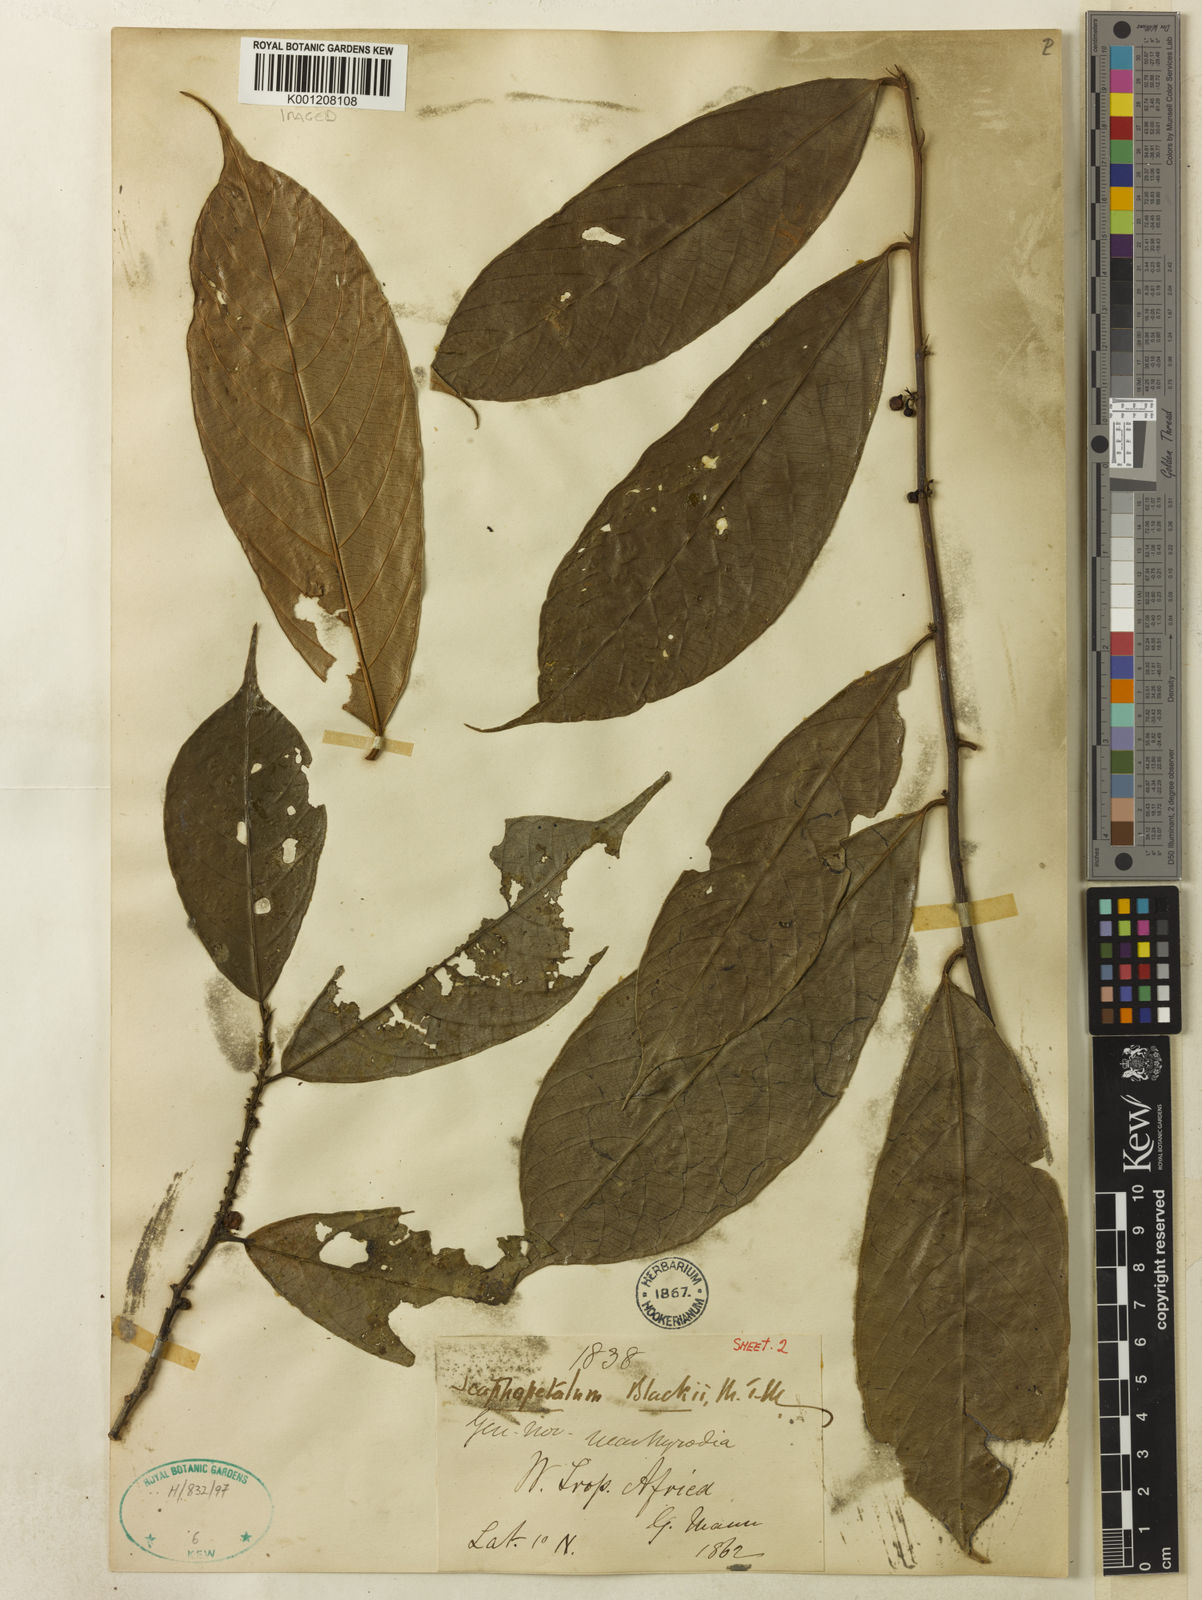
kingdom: Plantae
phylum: Tracheophyta
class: Magnoliopsida
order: Malvales
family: Malvaceae
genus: Scaphopetalum
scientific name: Scaphopetalum blackii
